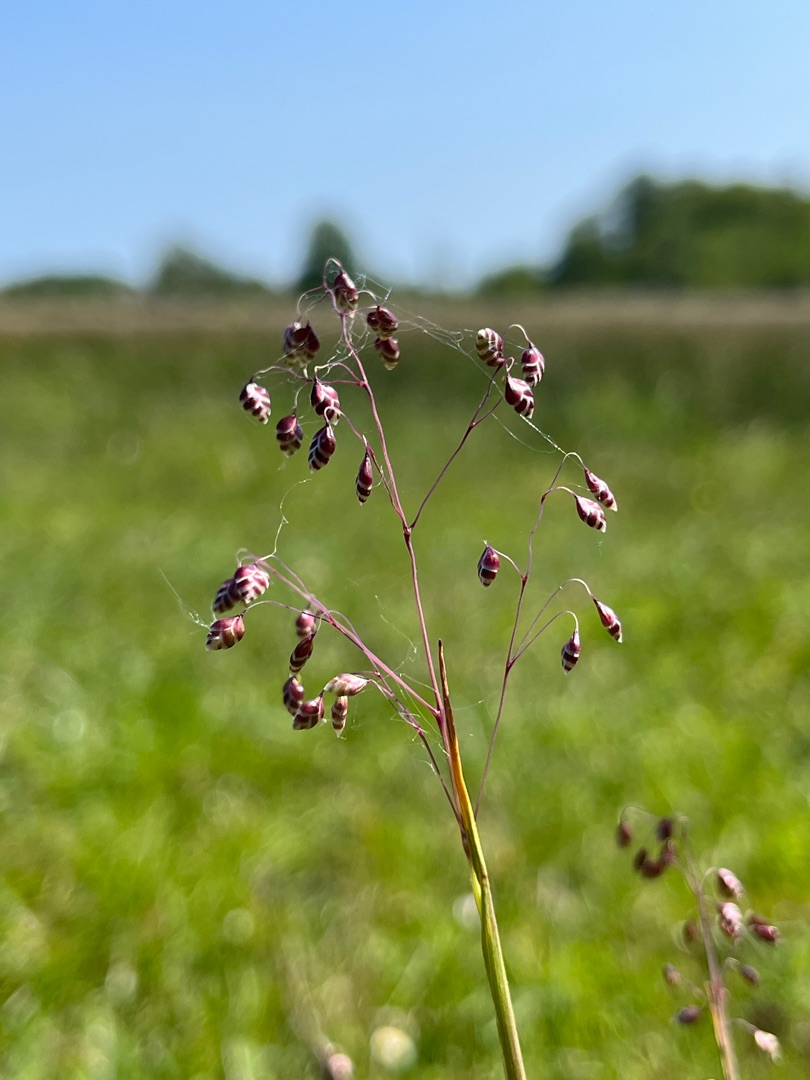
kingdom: Plantae
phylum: Tracheophyta
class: Liliopsida
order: Poales
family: Poaceae
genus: Briza
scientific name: Briza media
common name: Hjertegræs
